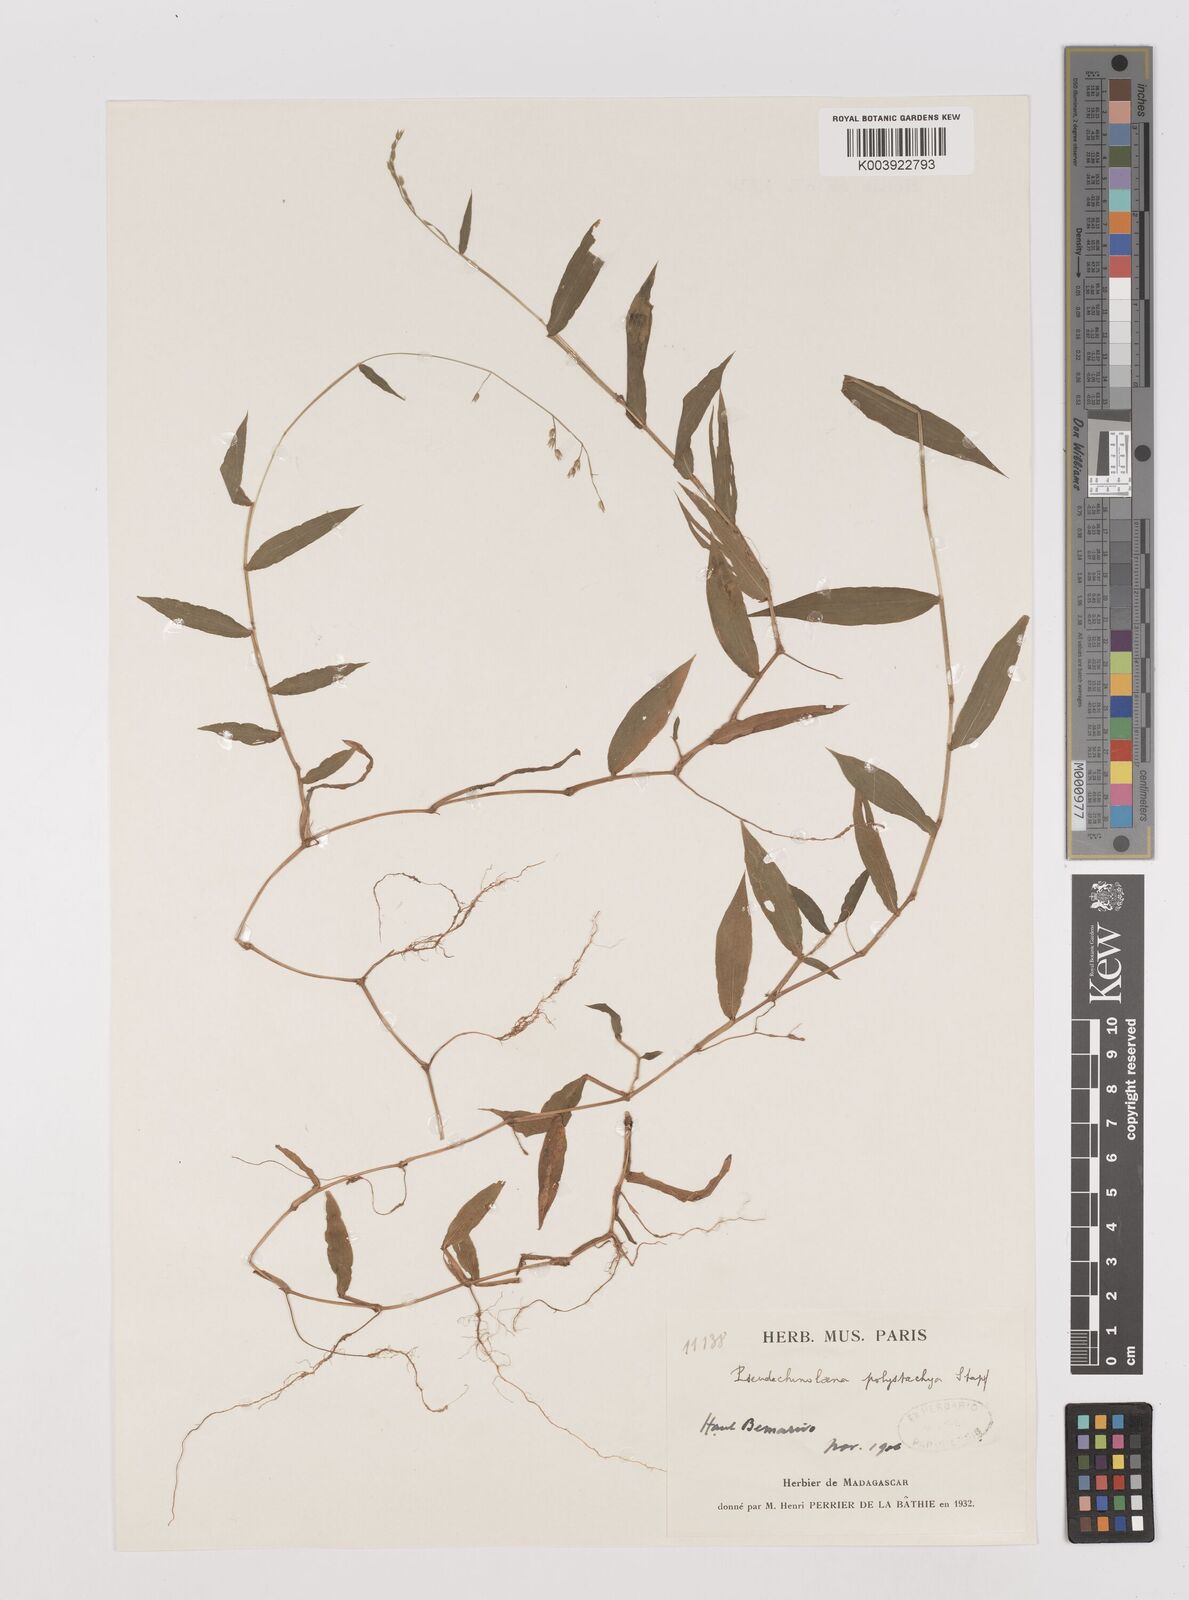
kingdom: Plantae
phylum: Tracheophyta
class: Liliopsida
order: Poales
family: Poaceae
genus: Pseudechinolaena
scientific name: Pseudechinolaena polystachya
